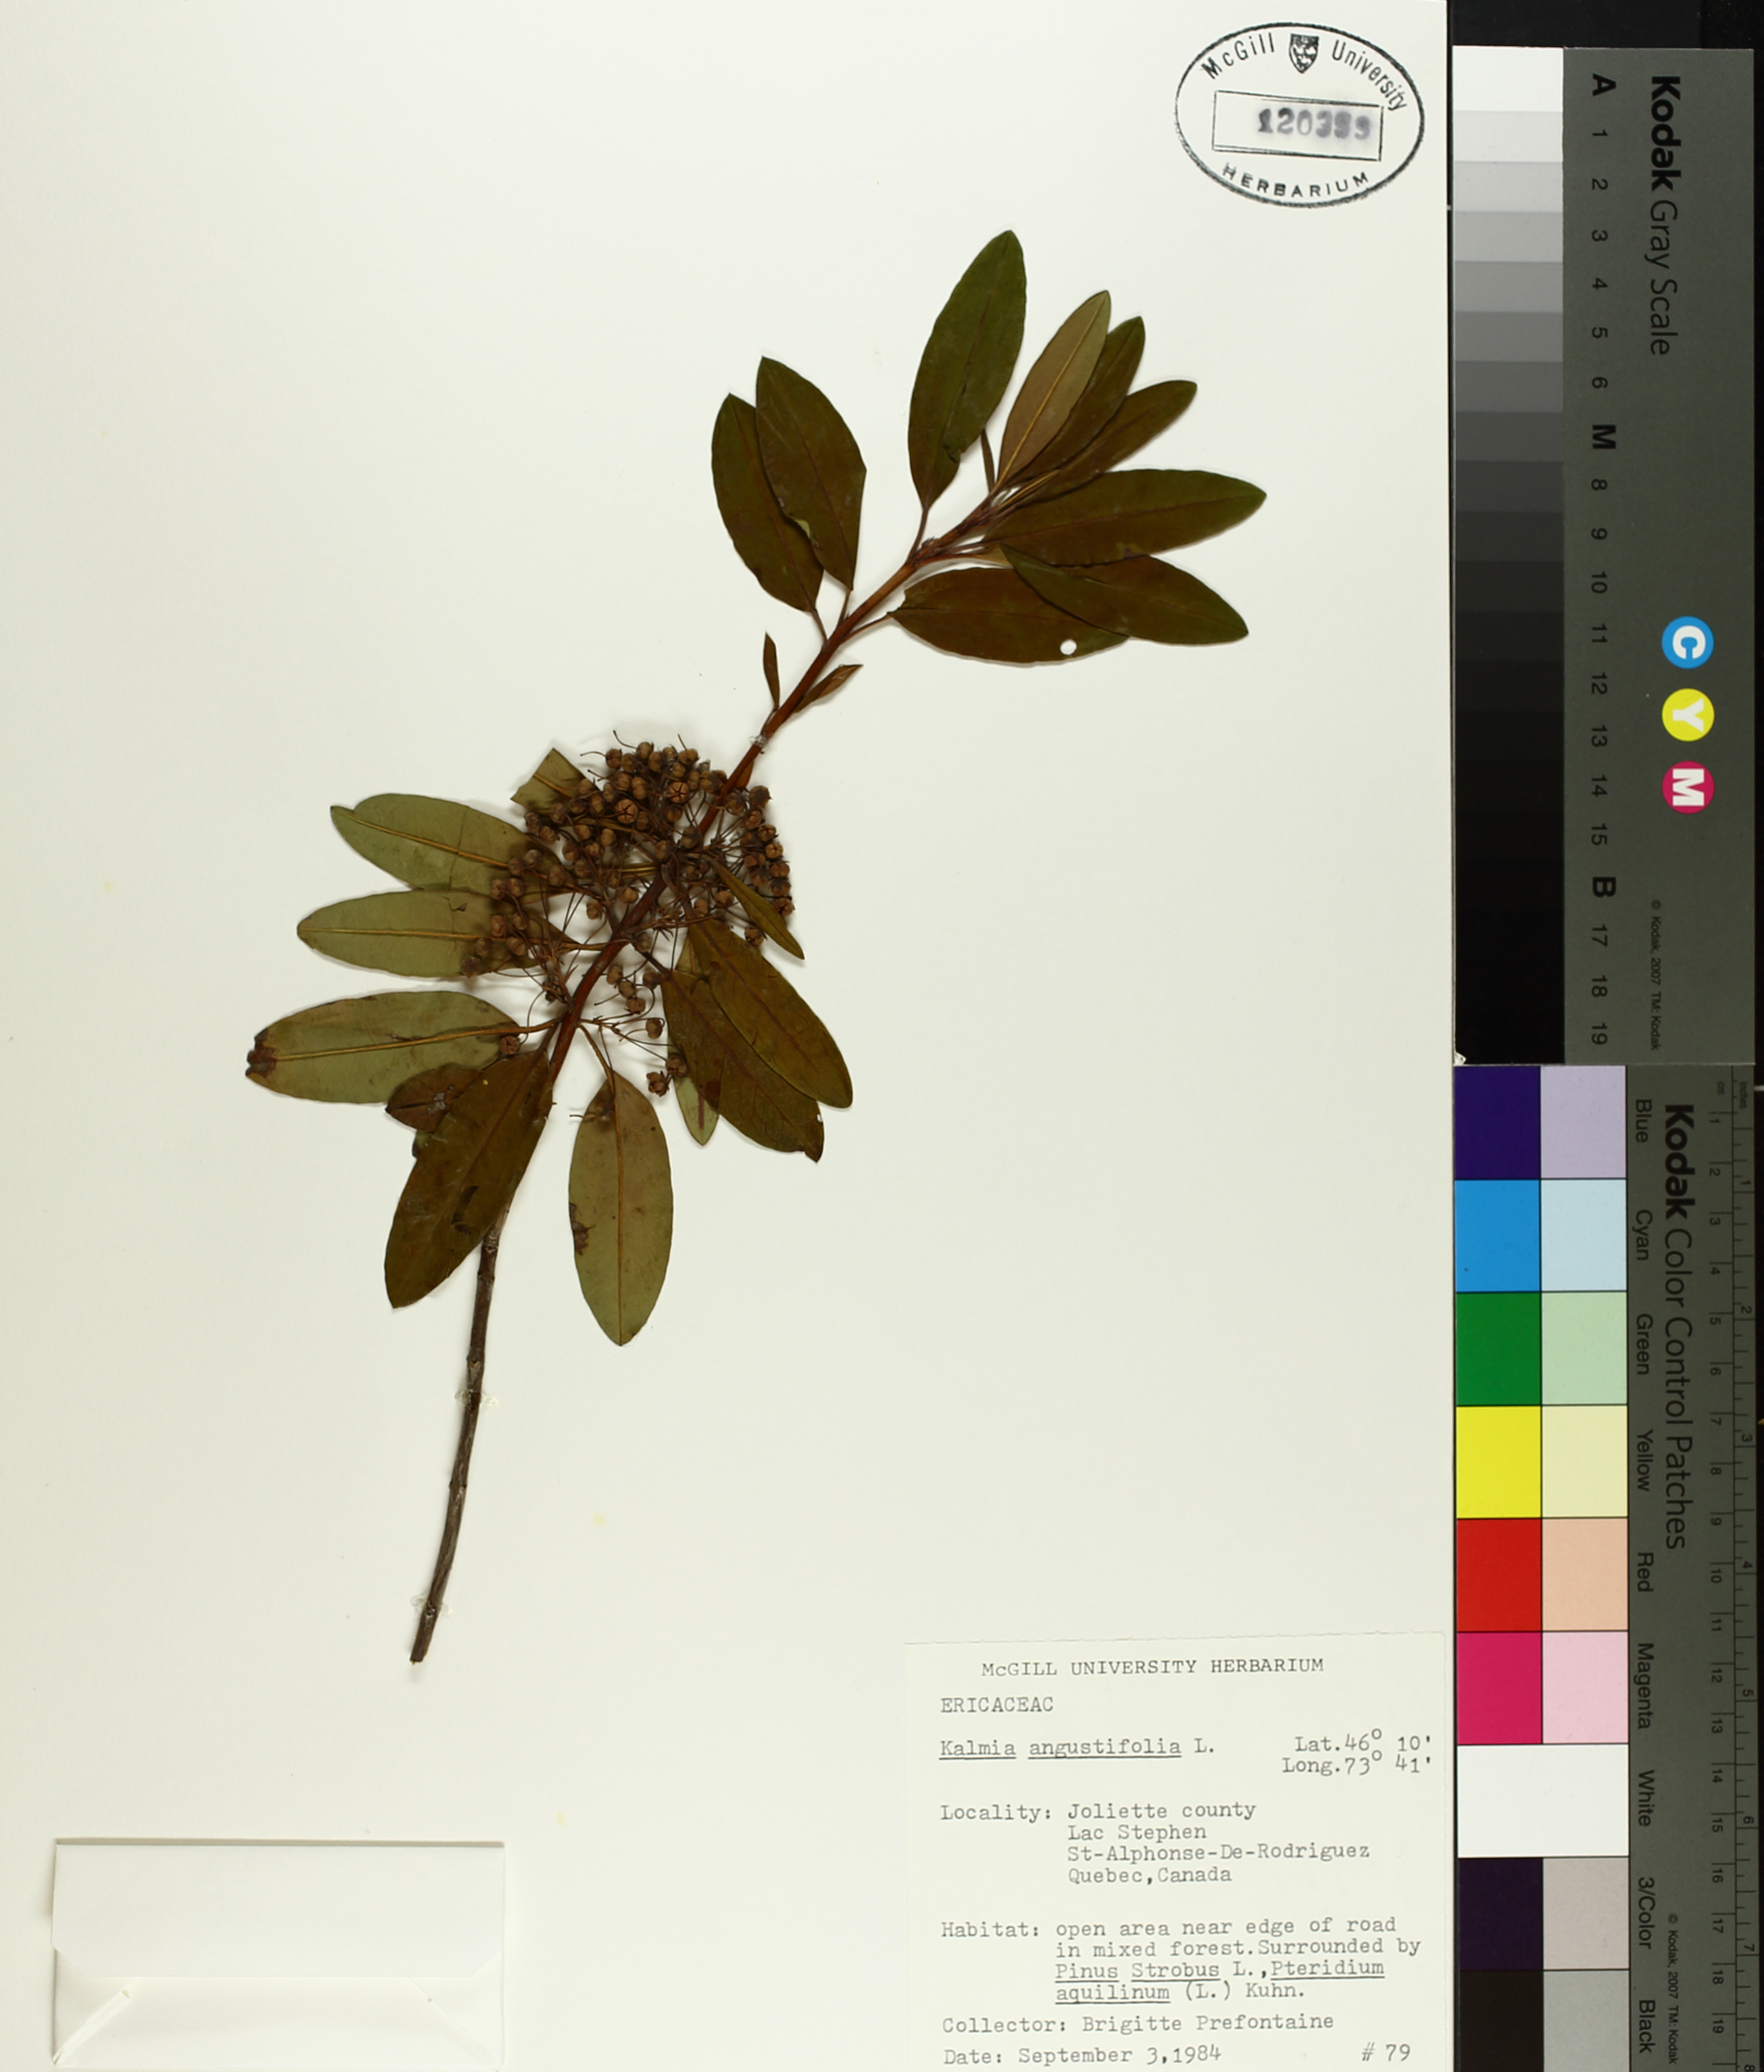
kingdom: Plantae
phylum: Tracheophyta
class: Magnoliopsida
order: Malpighiales
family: Hypericaceae
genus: Triadenum
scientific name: Triadenum fraseri
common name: Fraser's marsh st. johnswort
